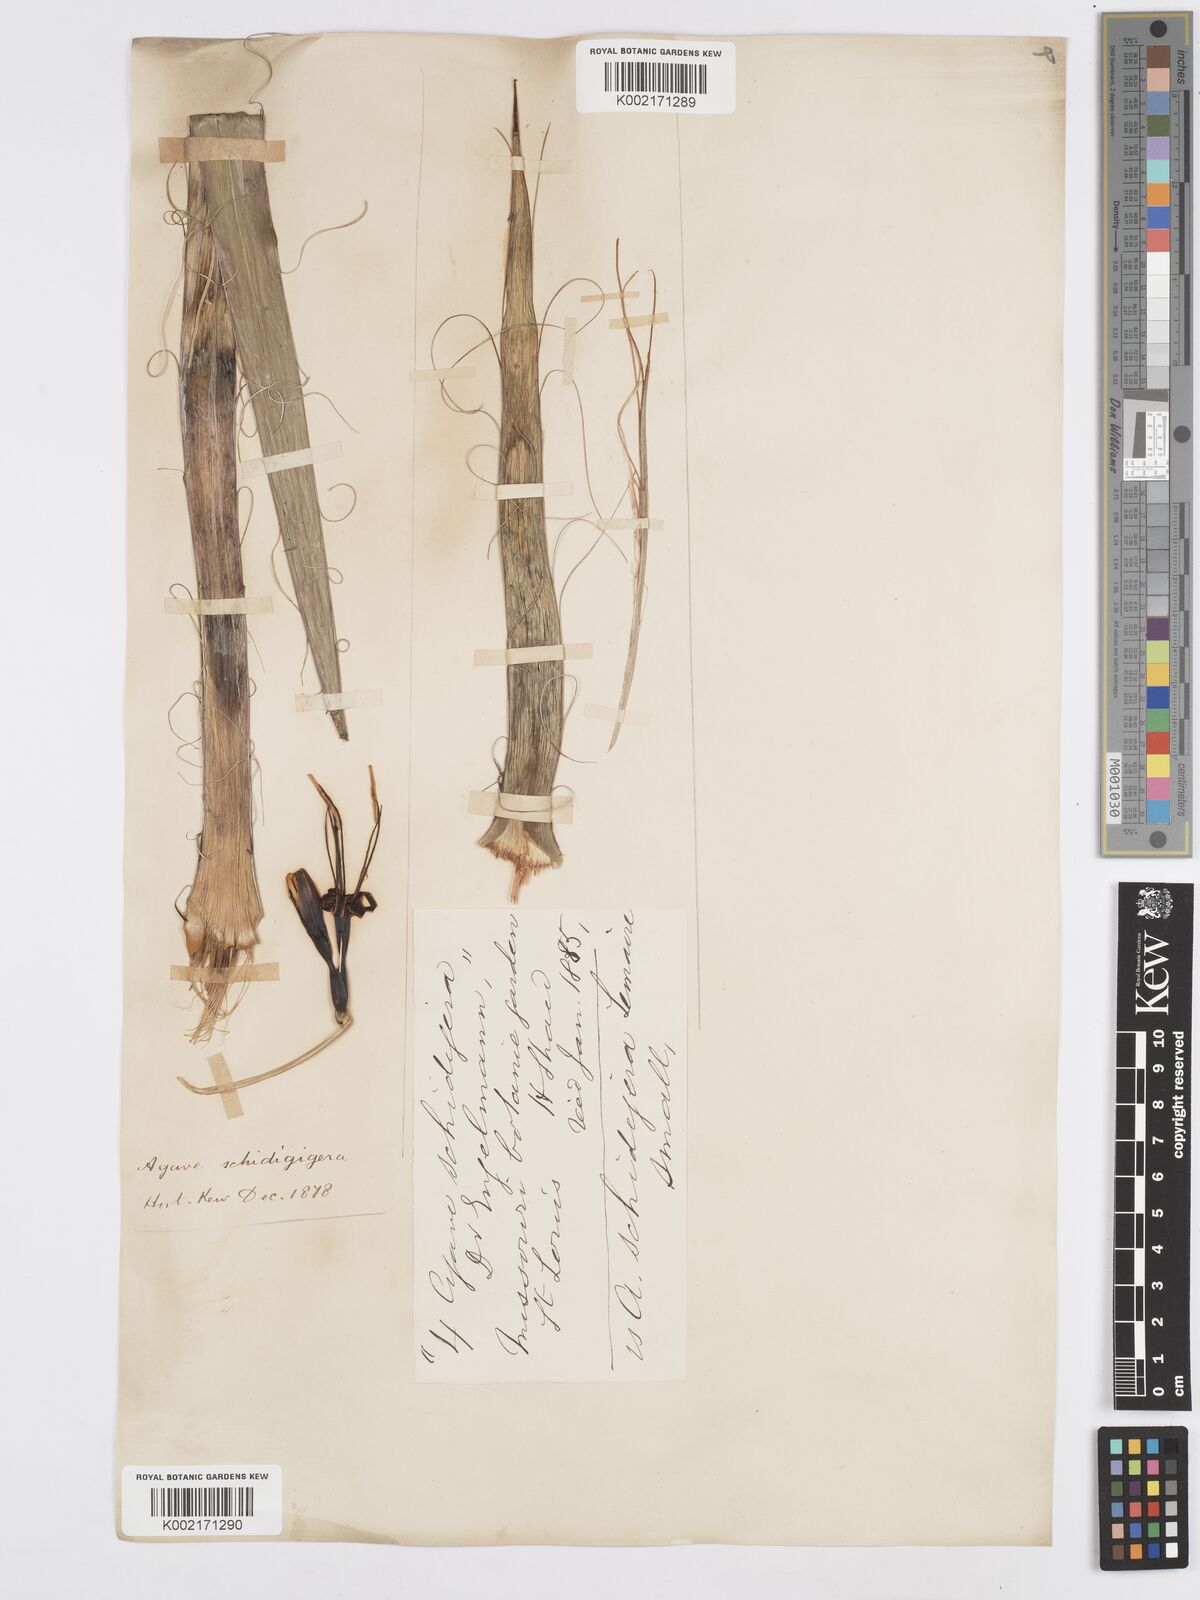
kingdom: Plantae
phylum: Tracheophyta
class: Liliopsida
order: Asparagales
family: Asparagaceae
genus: Agave
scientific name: Agave schidigera
